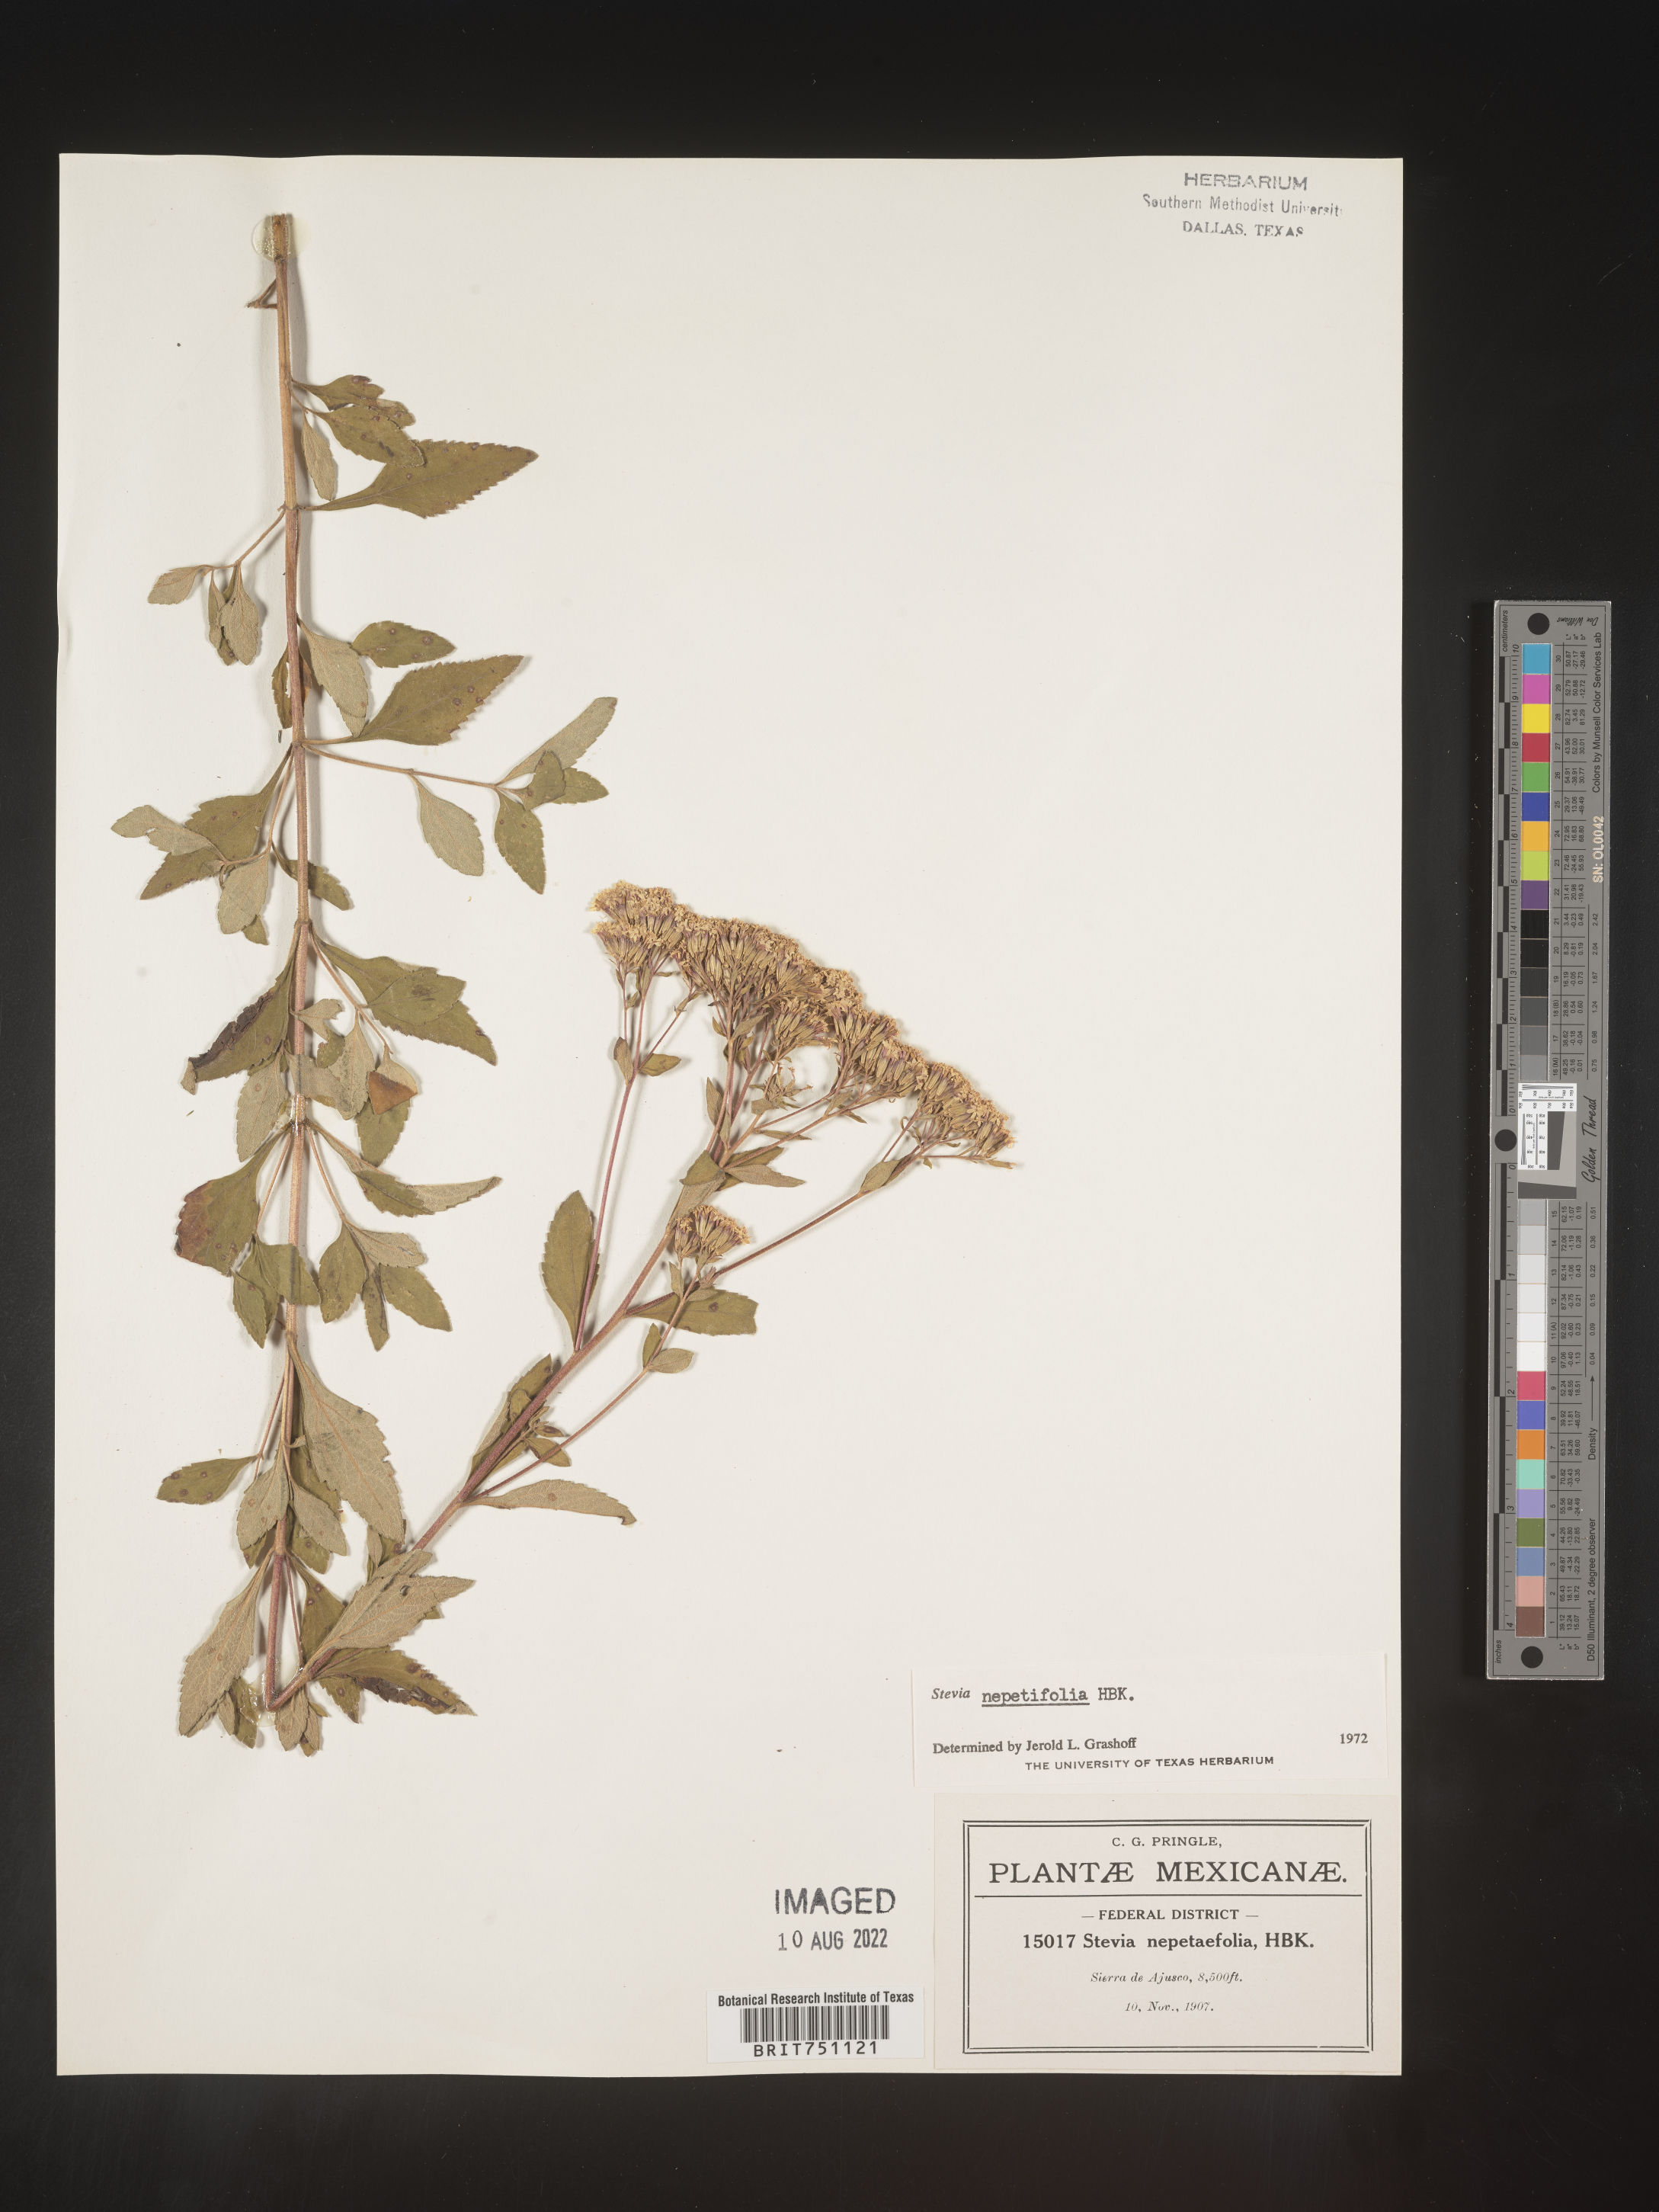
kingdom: Plantae
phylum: Tracheophyta
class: Magnoliopsida
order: Asterales
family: Asteraceae
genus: Stevia
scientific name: Stevia
